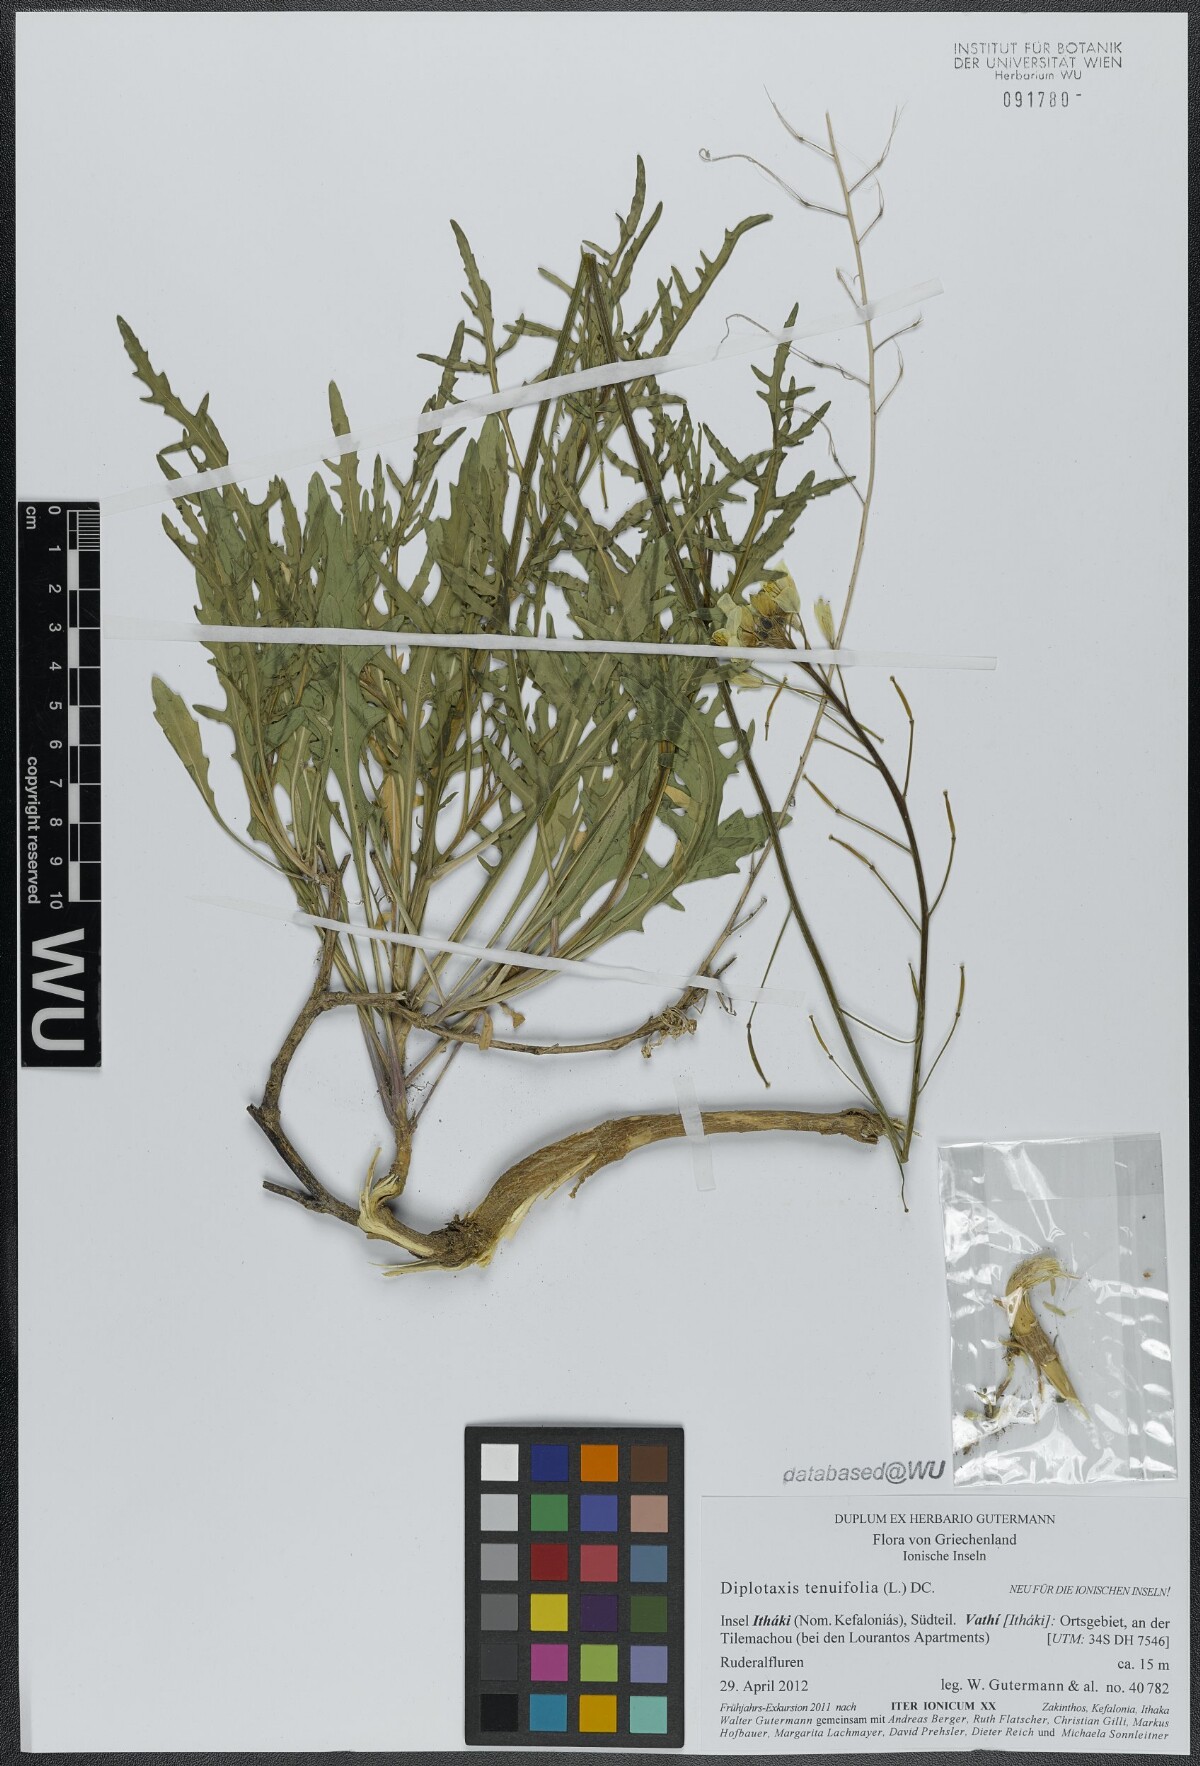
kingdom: Plantae
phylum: Tracheophyta
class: Magnoliopsida
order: Brassicales
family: Brassicaceae
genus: Diplotaxis
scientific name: Diplotaxis tenuifolia
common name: Perennial wall-rocket
